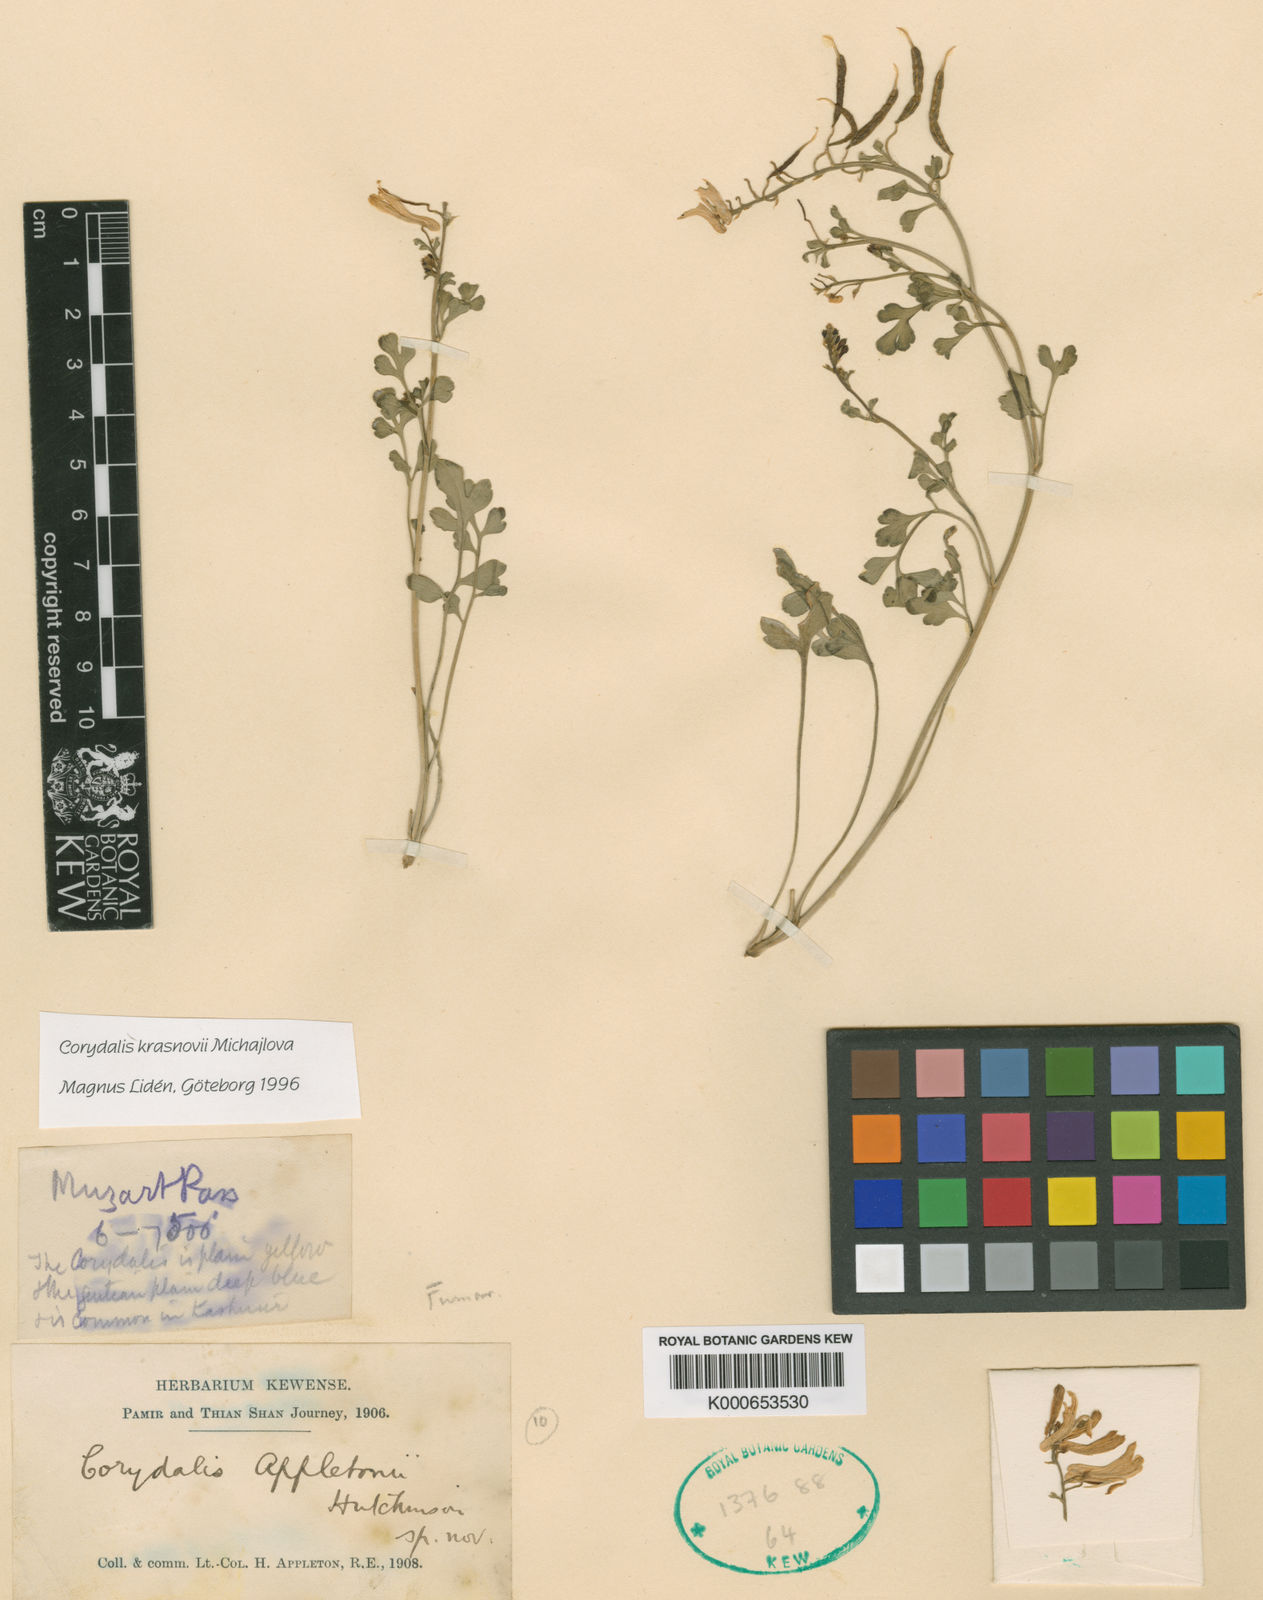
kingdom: Plantae
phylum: Tracheophyta
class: Magnoliopsida
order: Ranunculales
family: Papaveraceae
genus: Corydalis
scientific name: Corydalis
